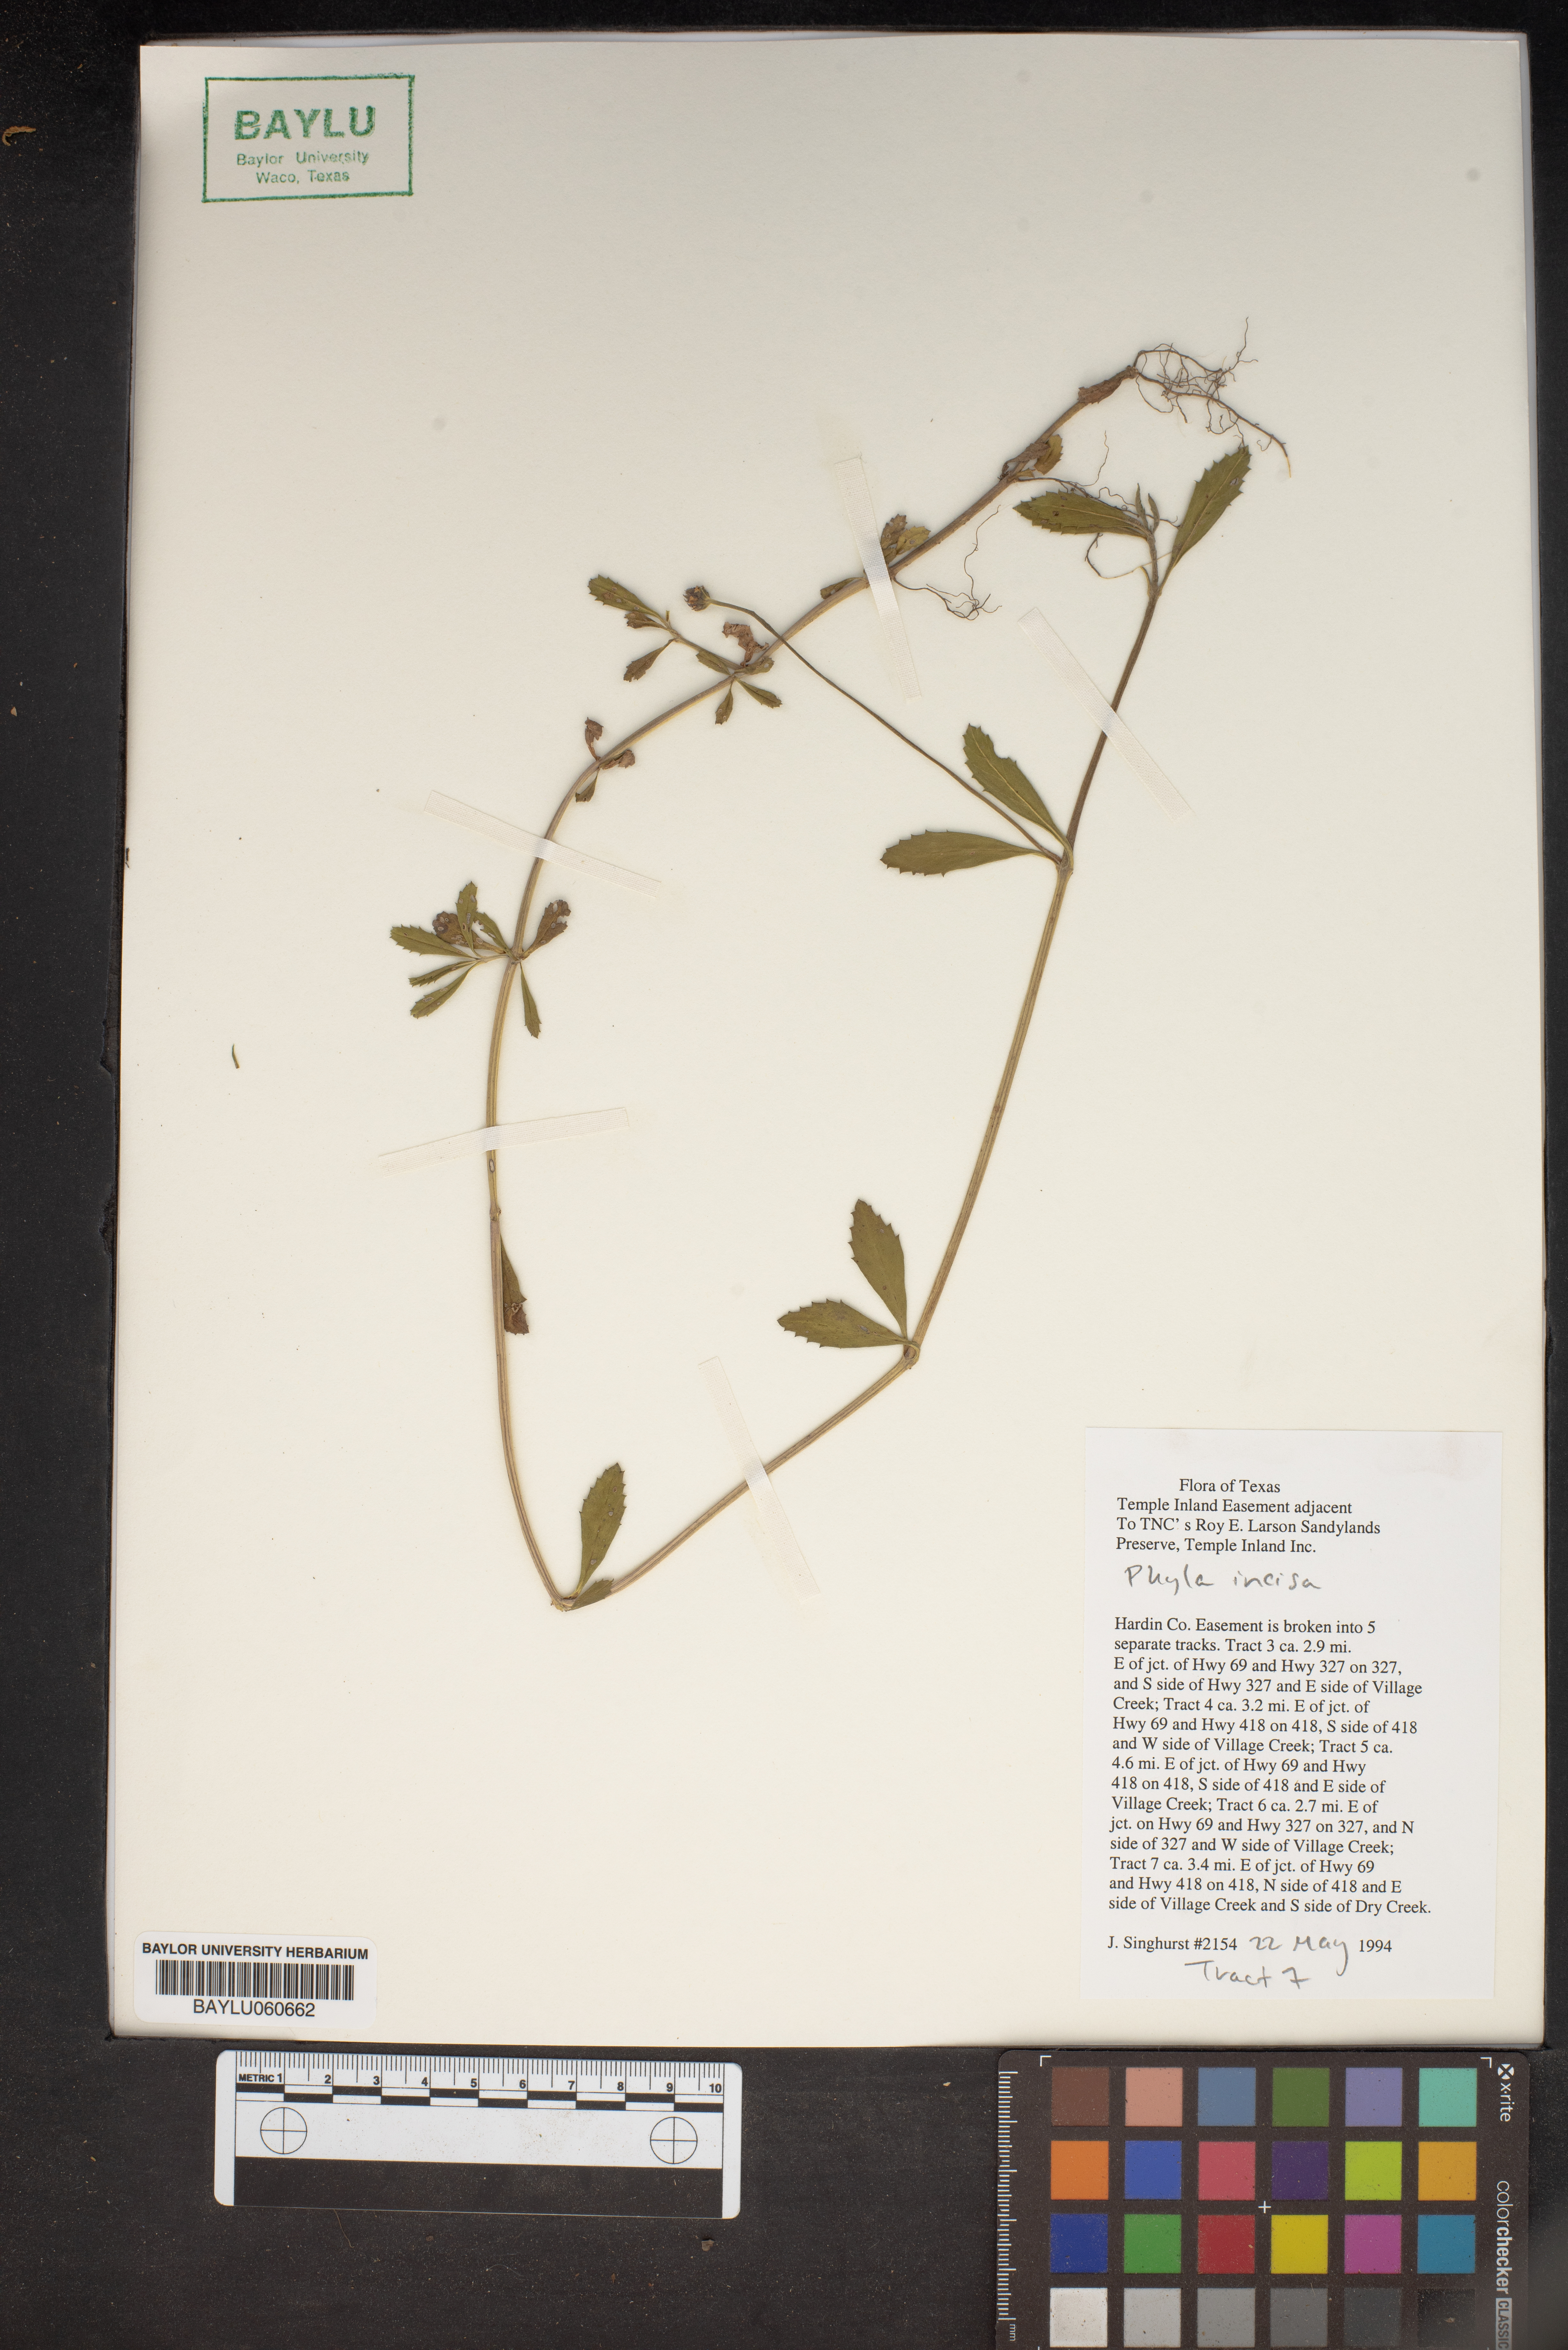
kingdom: Plantae
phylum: Tracheophyta
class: Magnoliopsida
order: Lamiales
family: Verbenaceae
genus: Phyla
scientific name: Phyla nodiflora
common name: Frogfruit
